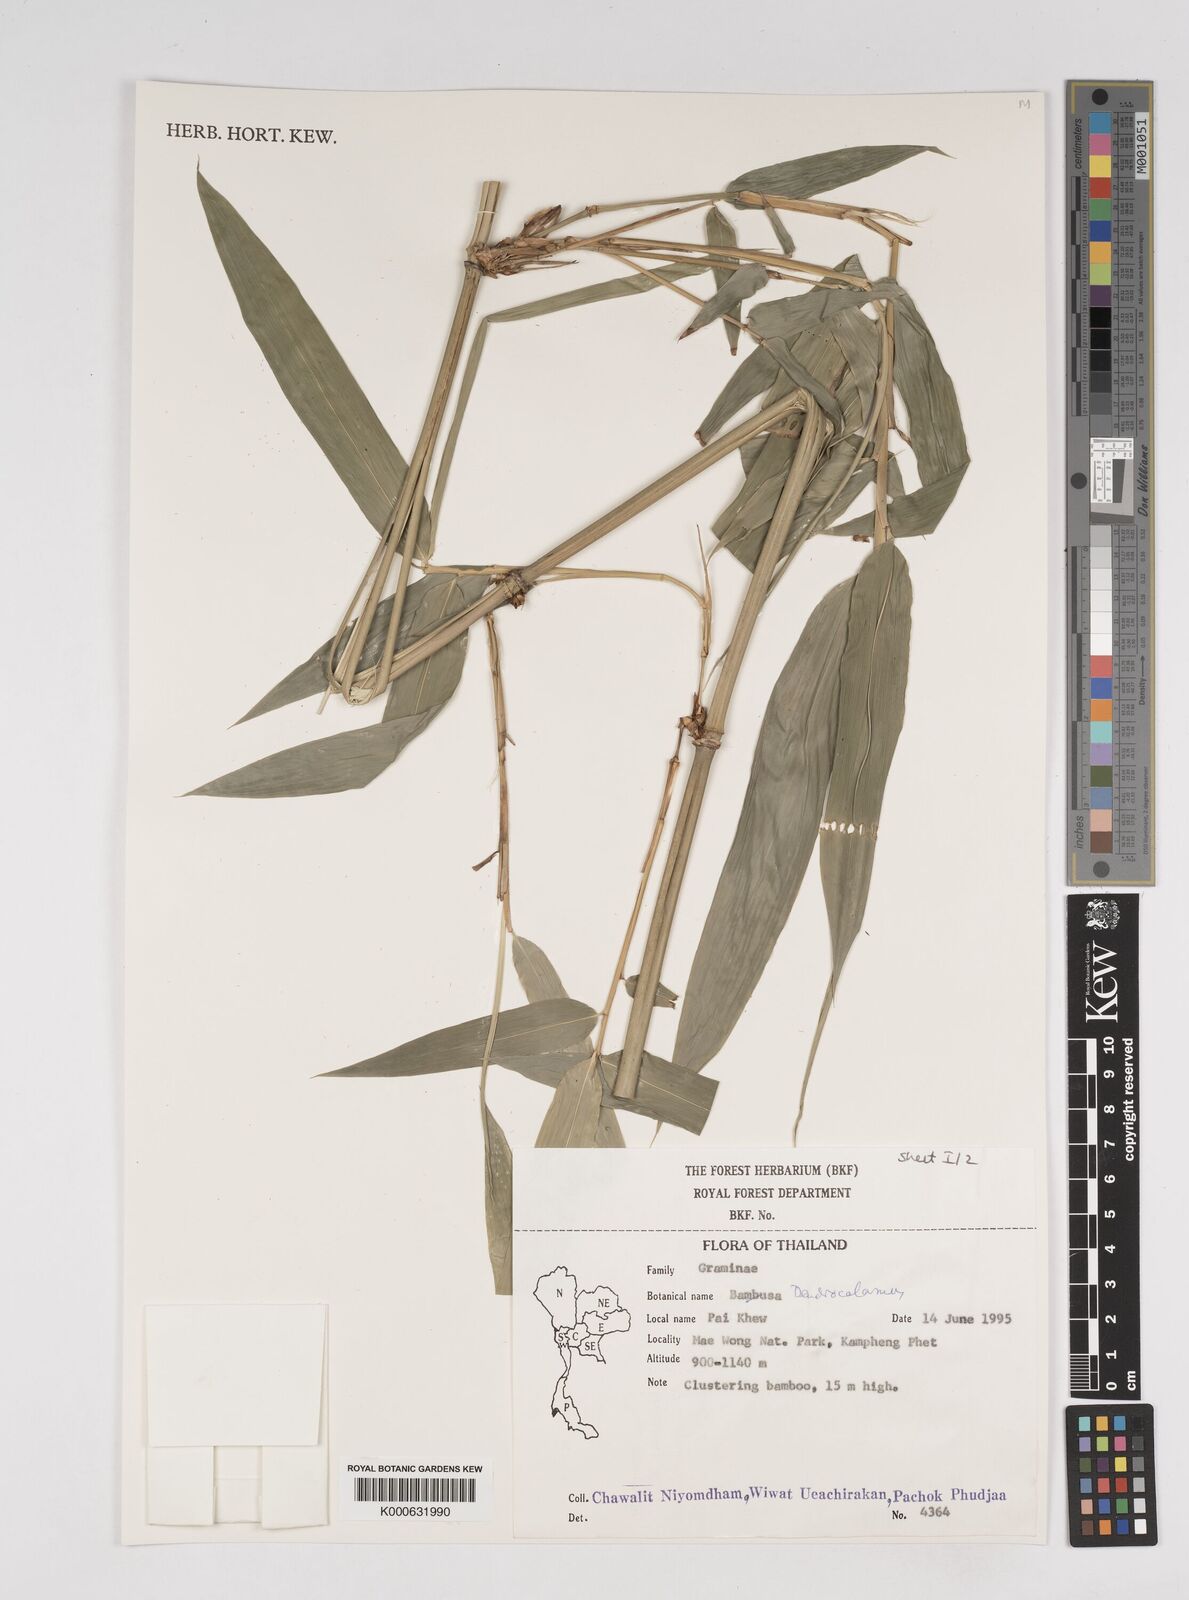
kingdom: Plantae
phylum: Tracheophyta
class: Liliopsida
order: Poales
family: Poaceae
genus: Dendrocalamus
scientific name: Dendrocalamus
